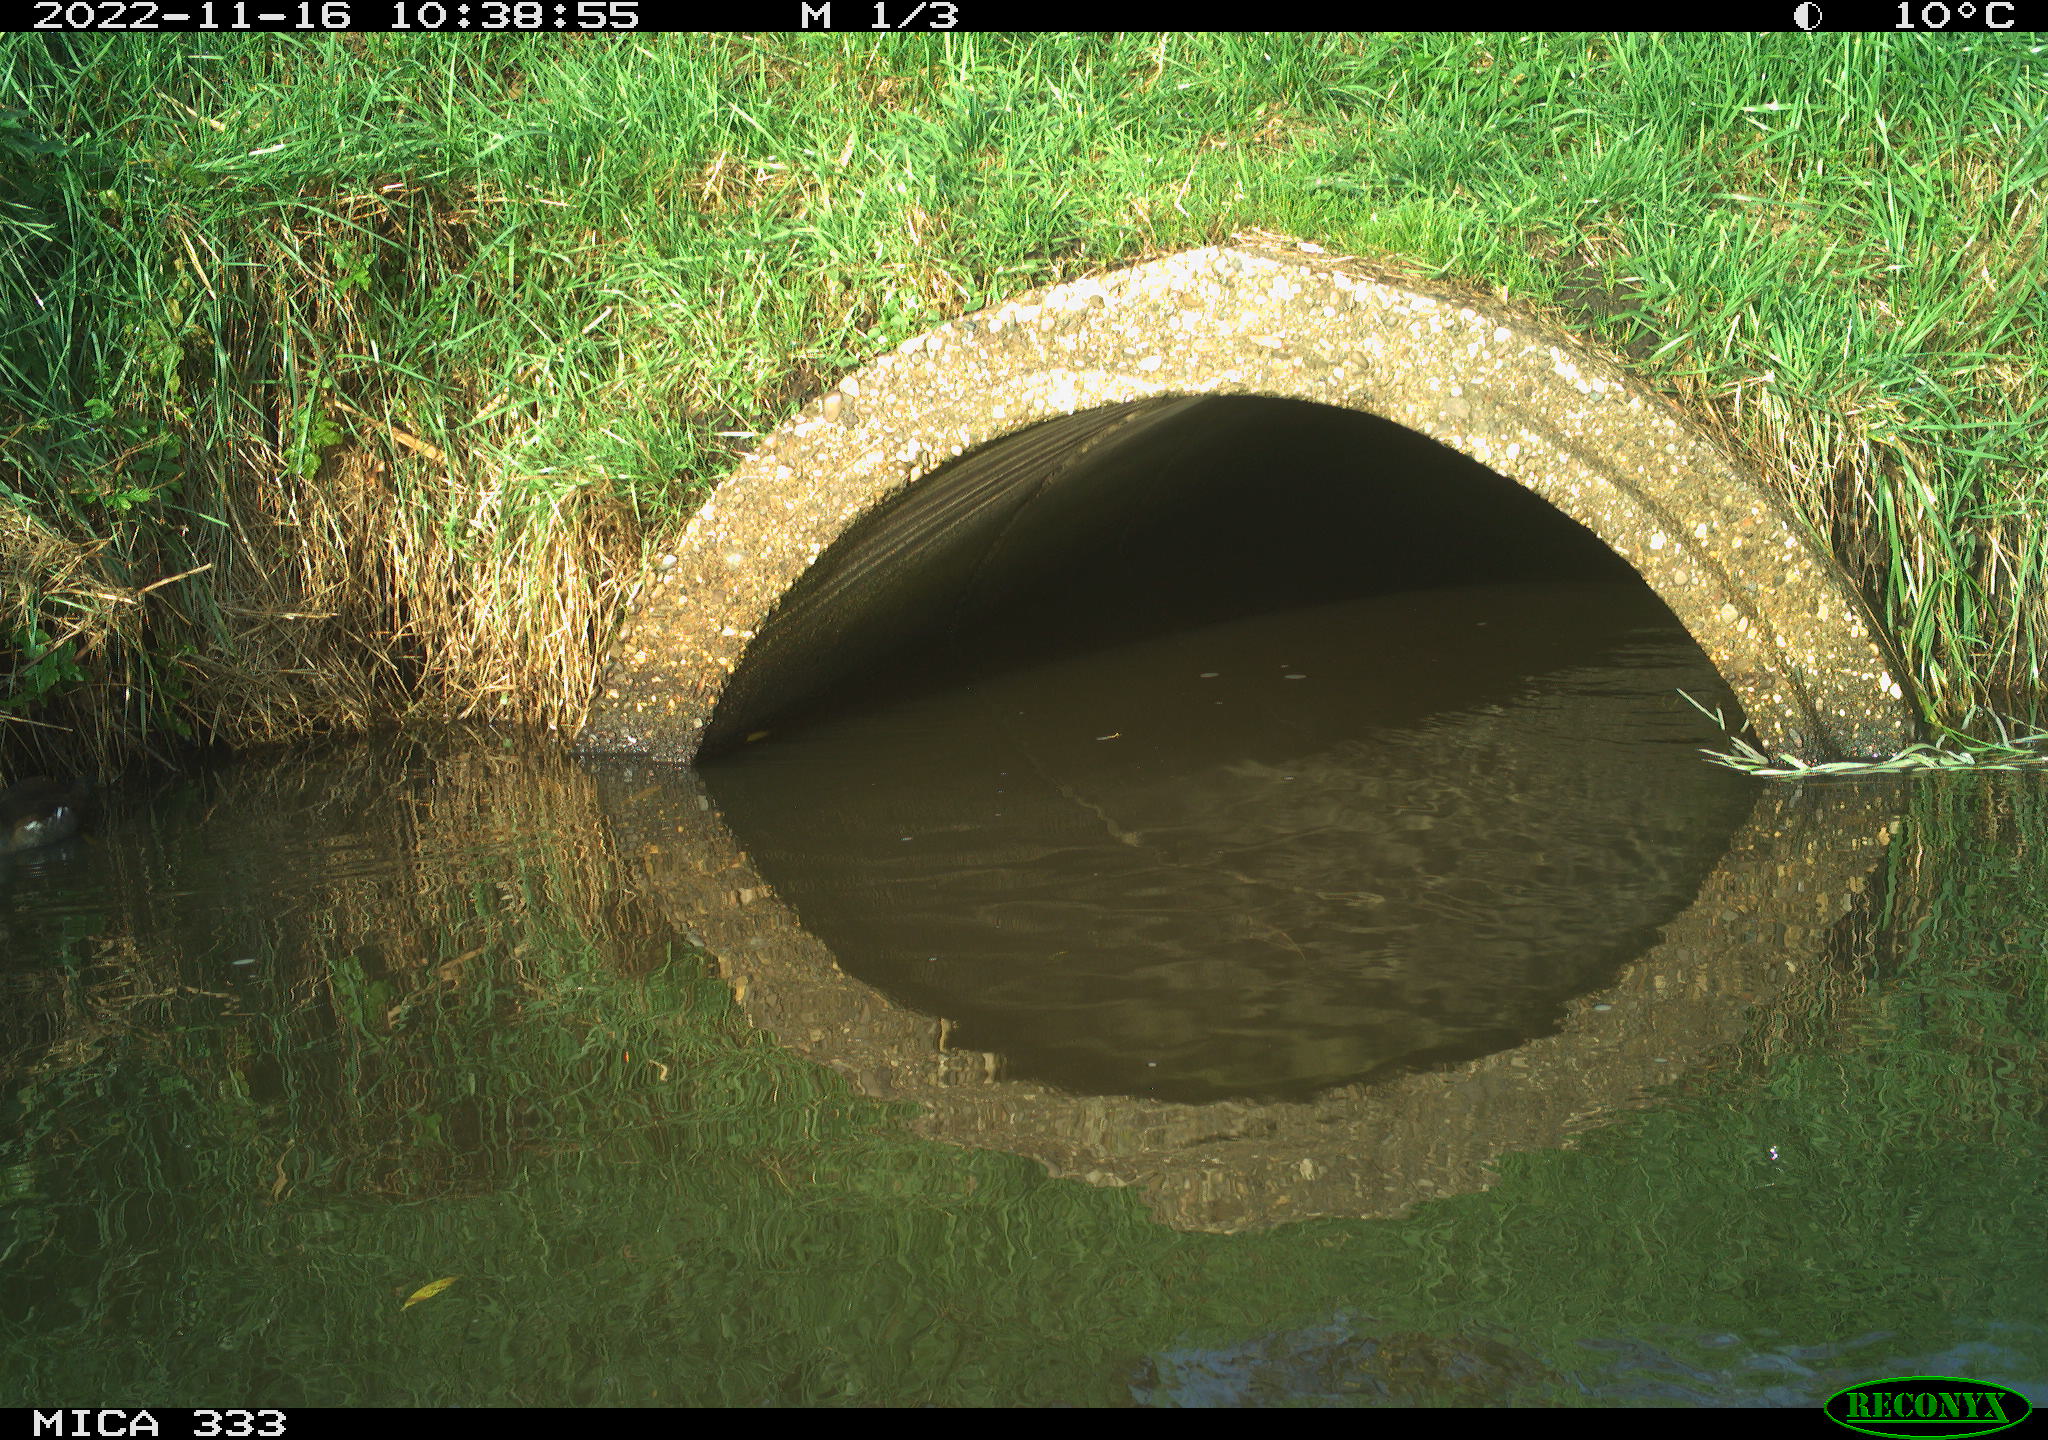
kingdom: Animalia
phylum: Chordata
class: Aves
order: Gruiformes
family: Rallidae
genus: Gallinula
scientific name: Gallinula chloropus
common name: Common moorhen
